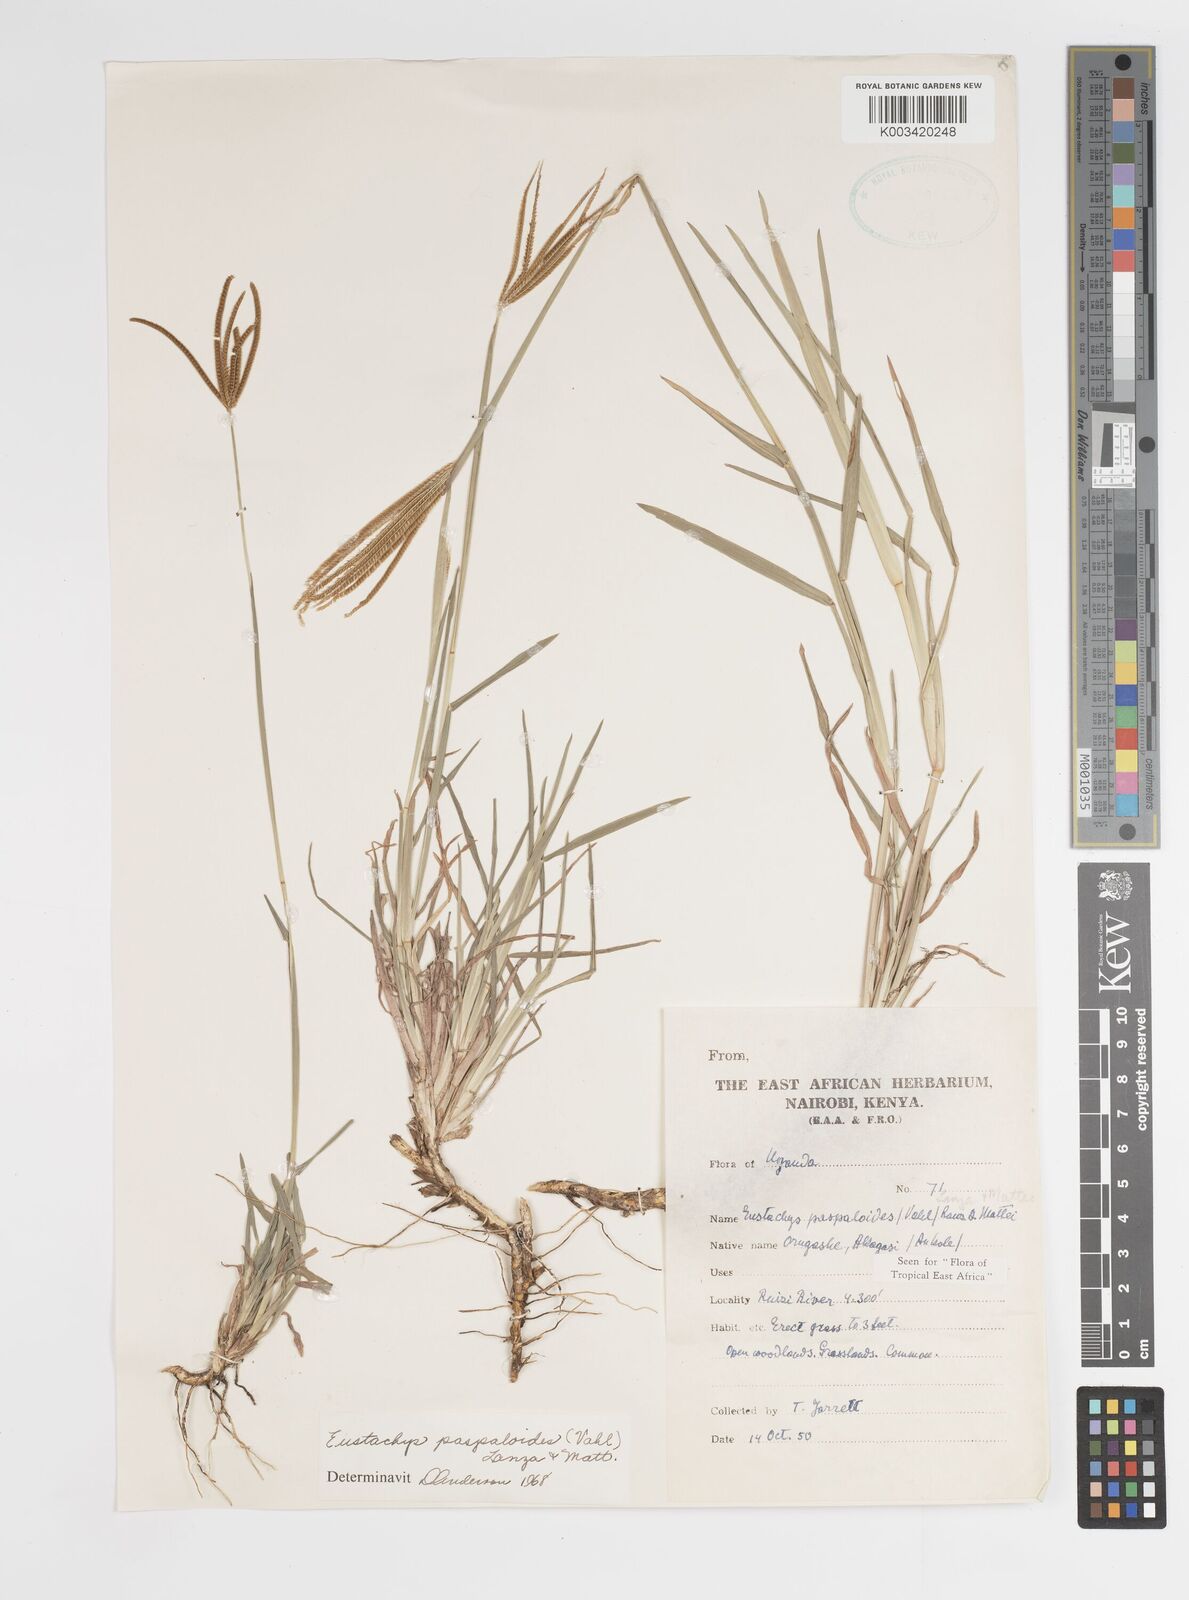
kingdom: Plantae
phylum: Tracheophyta
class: Liliopsida
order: Poales
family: Poaceae
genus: Eustachys
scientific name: Eustachys paspaloides
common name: Caribbean fingergrass
